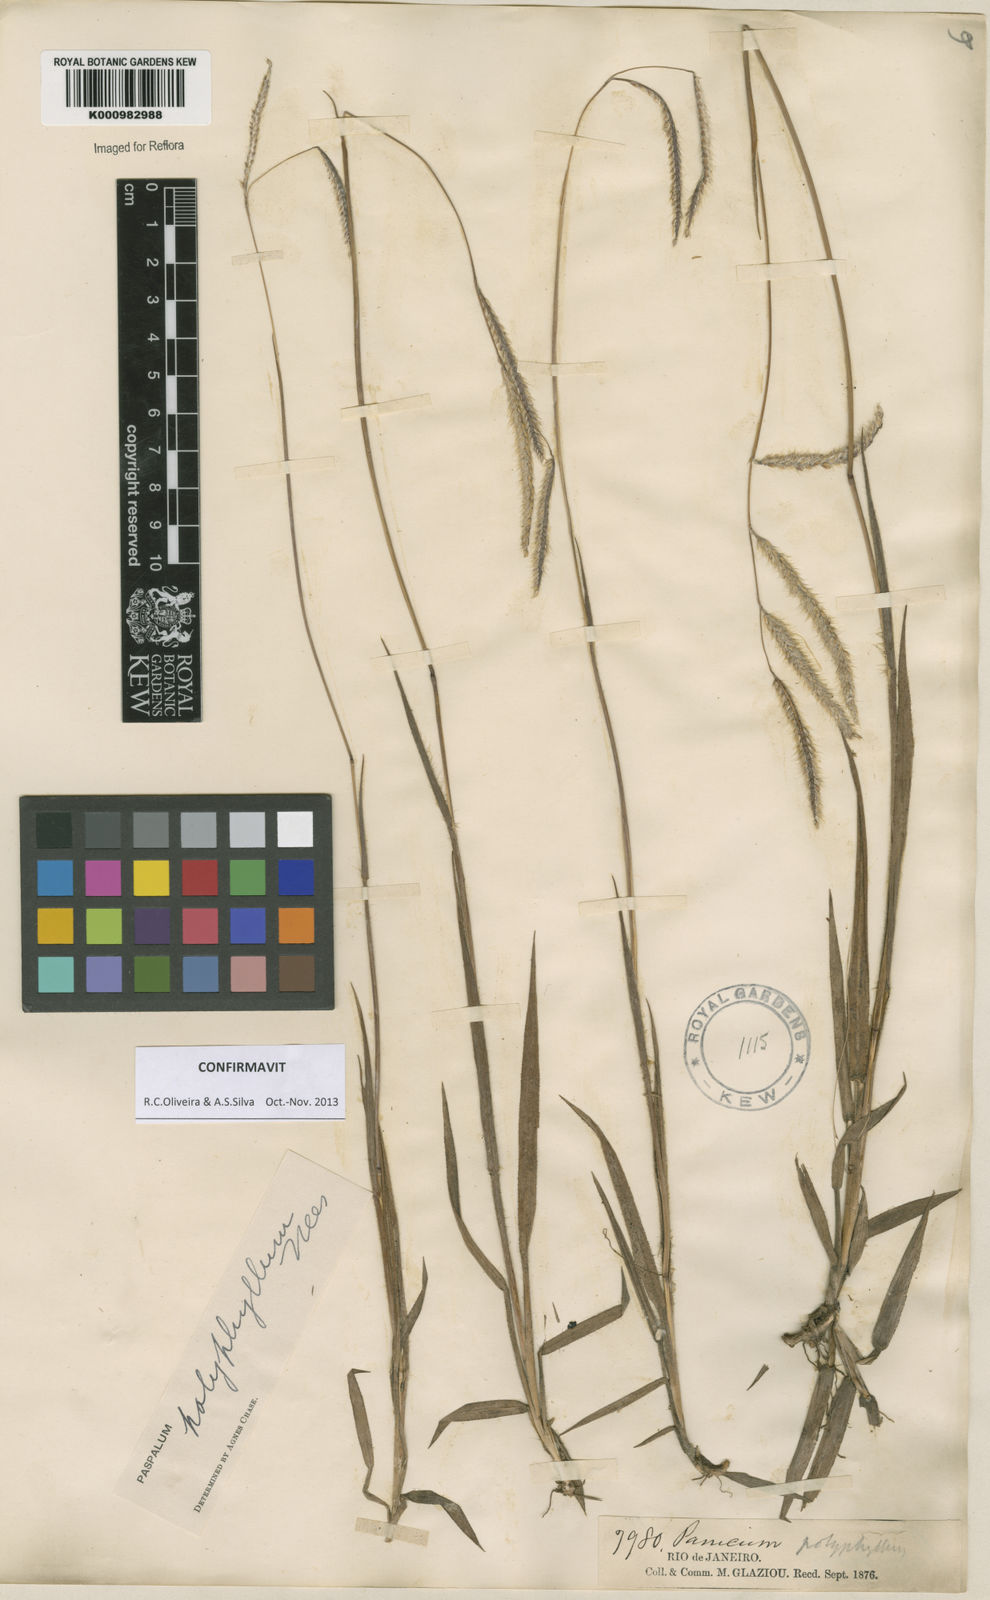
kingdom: Plantae
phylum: Tracheophyta
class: Liliopsida
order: Poales
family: Poaceae
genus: Paspalum
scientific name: Paspalum
